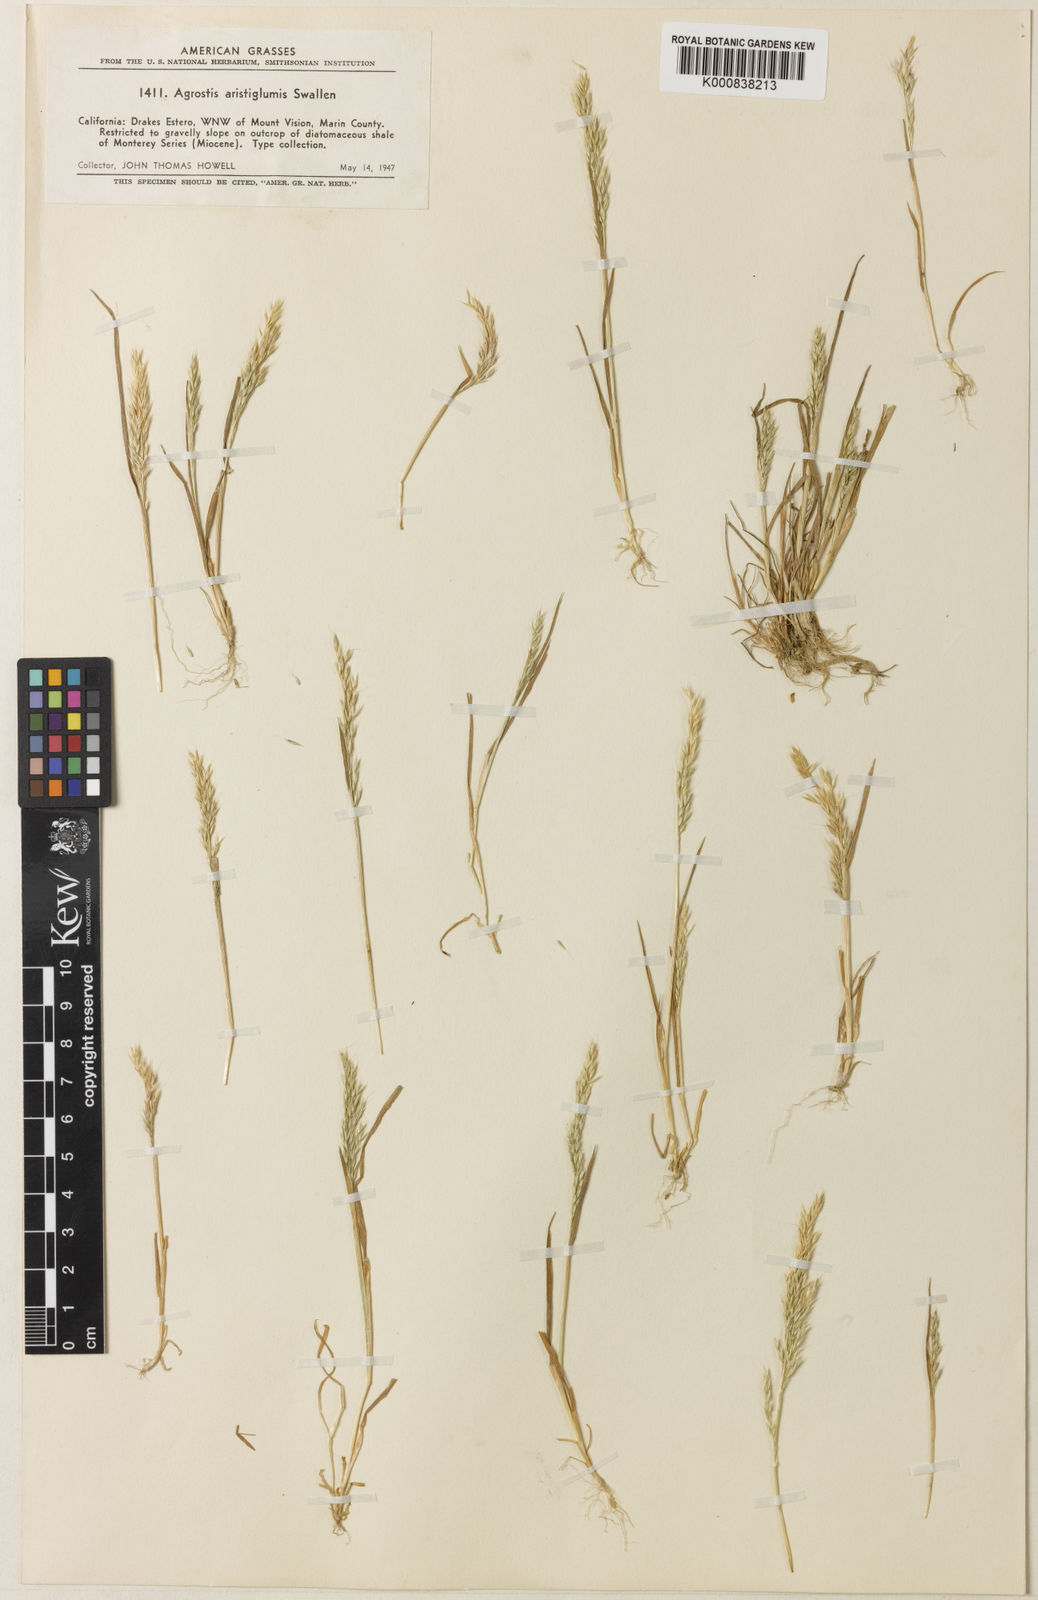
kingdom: Plantae
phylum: Tracheophyta
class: Liliopsida
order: Poales
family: Poaceae
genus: Agrostis
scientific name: Agrostis microphylla
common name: Small-leaf bent
